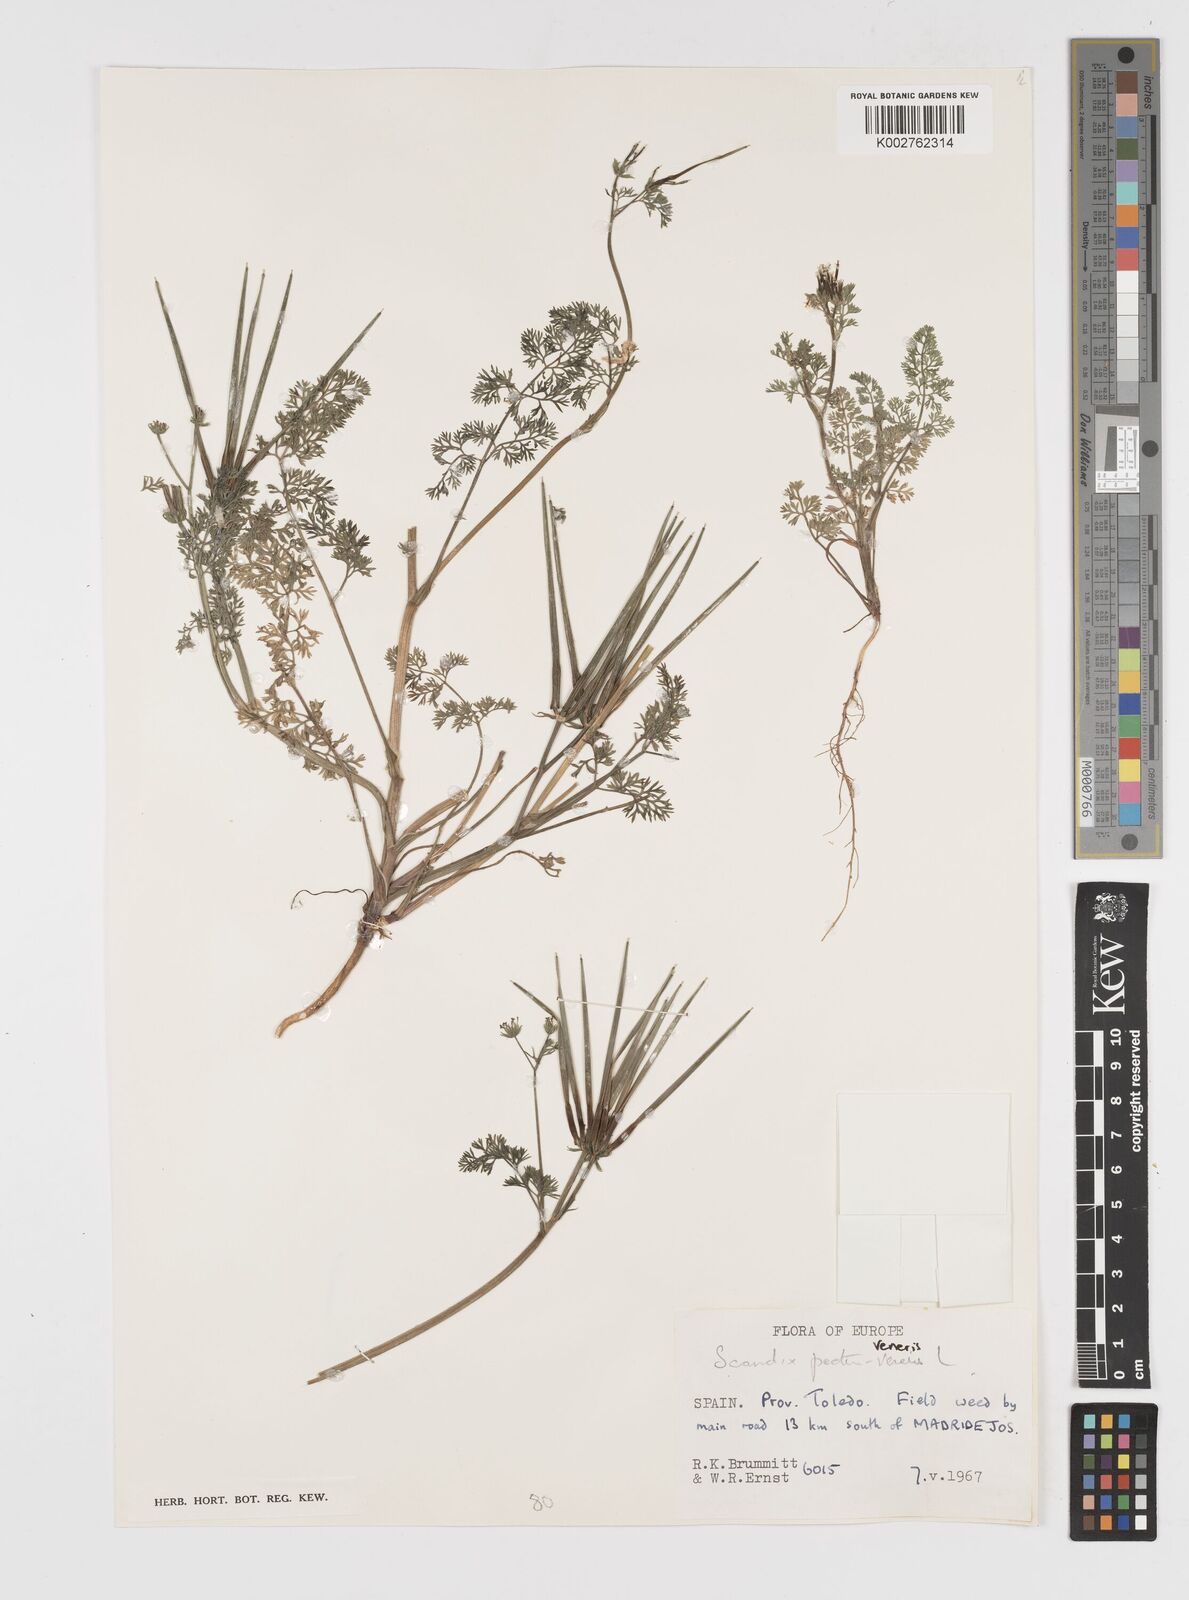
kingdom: Plantae
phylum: Tracheophyta
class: Magnoliopsida
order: Apiales
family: Apiaceae
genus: Scandix
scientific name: Scandix pecten-veneris
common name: Shepherd's-needle
